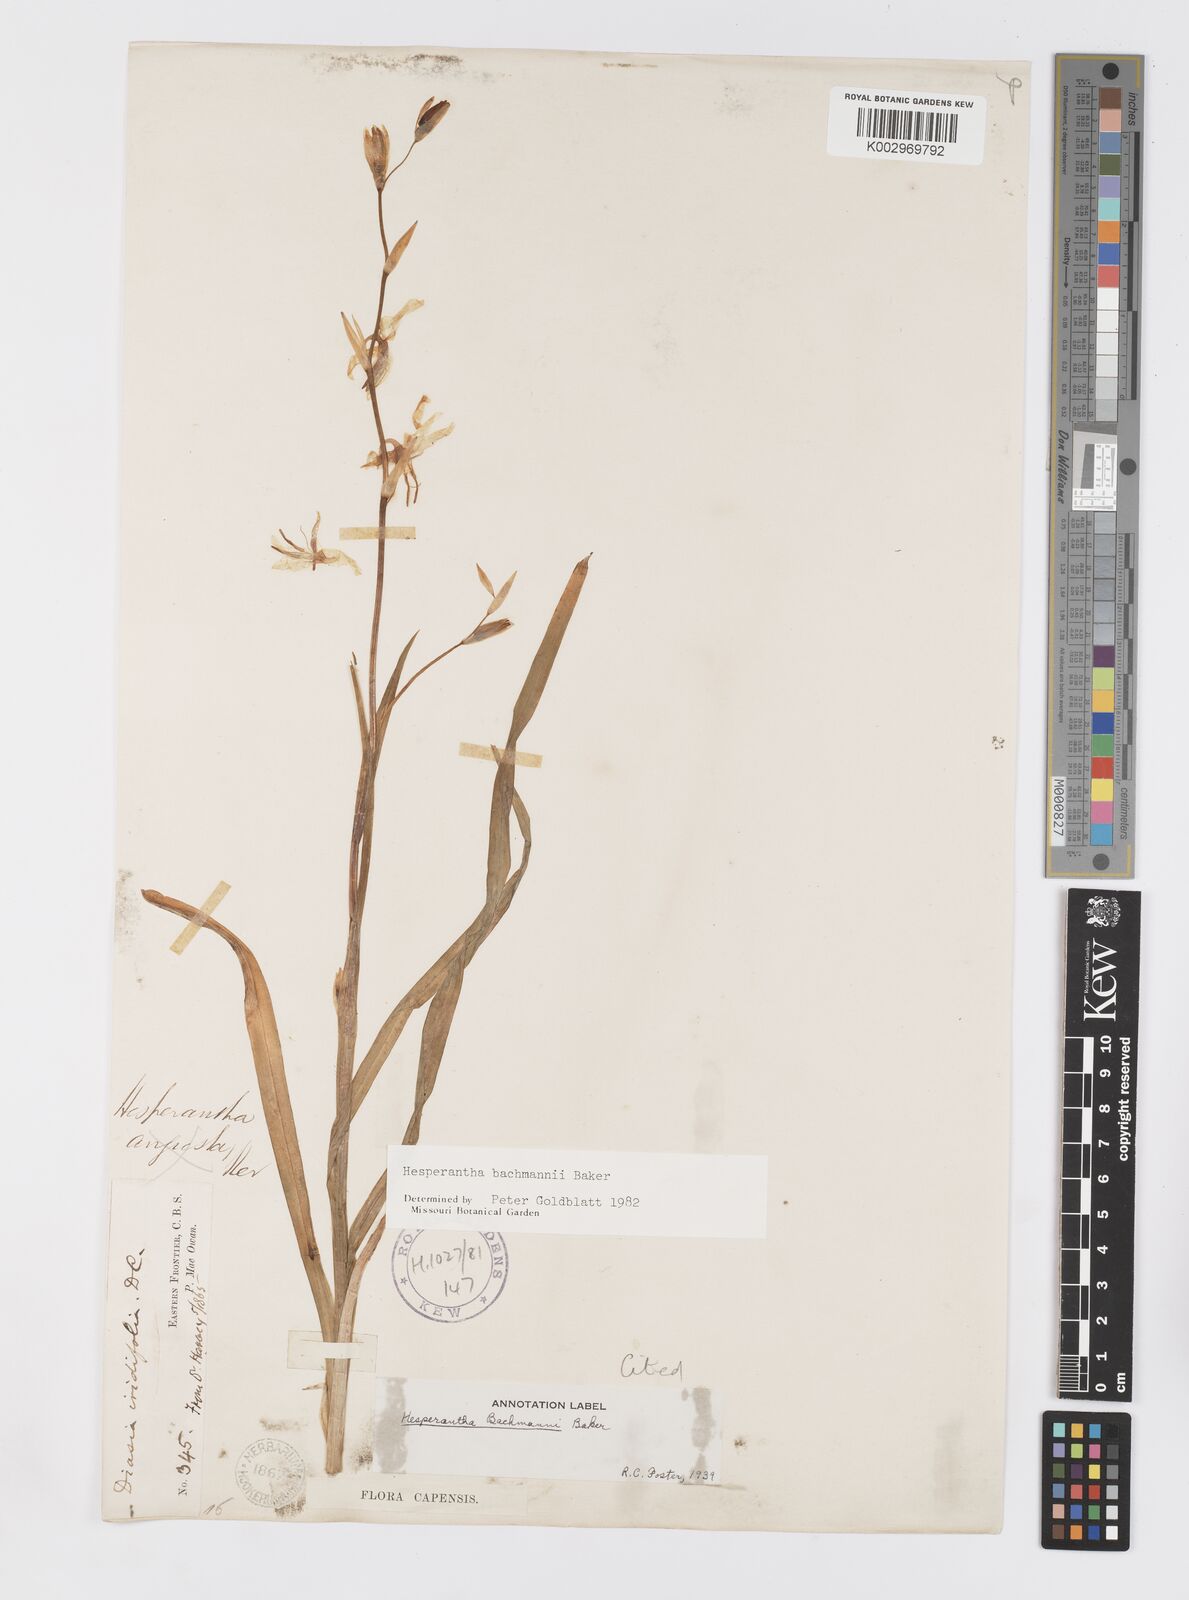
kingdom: Plantae
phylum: Tracheophyta
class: Liliopsida
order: Asparagales
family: Iridaceae
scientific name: Iridaceae
